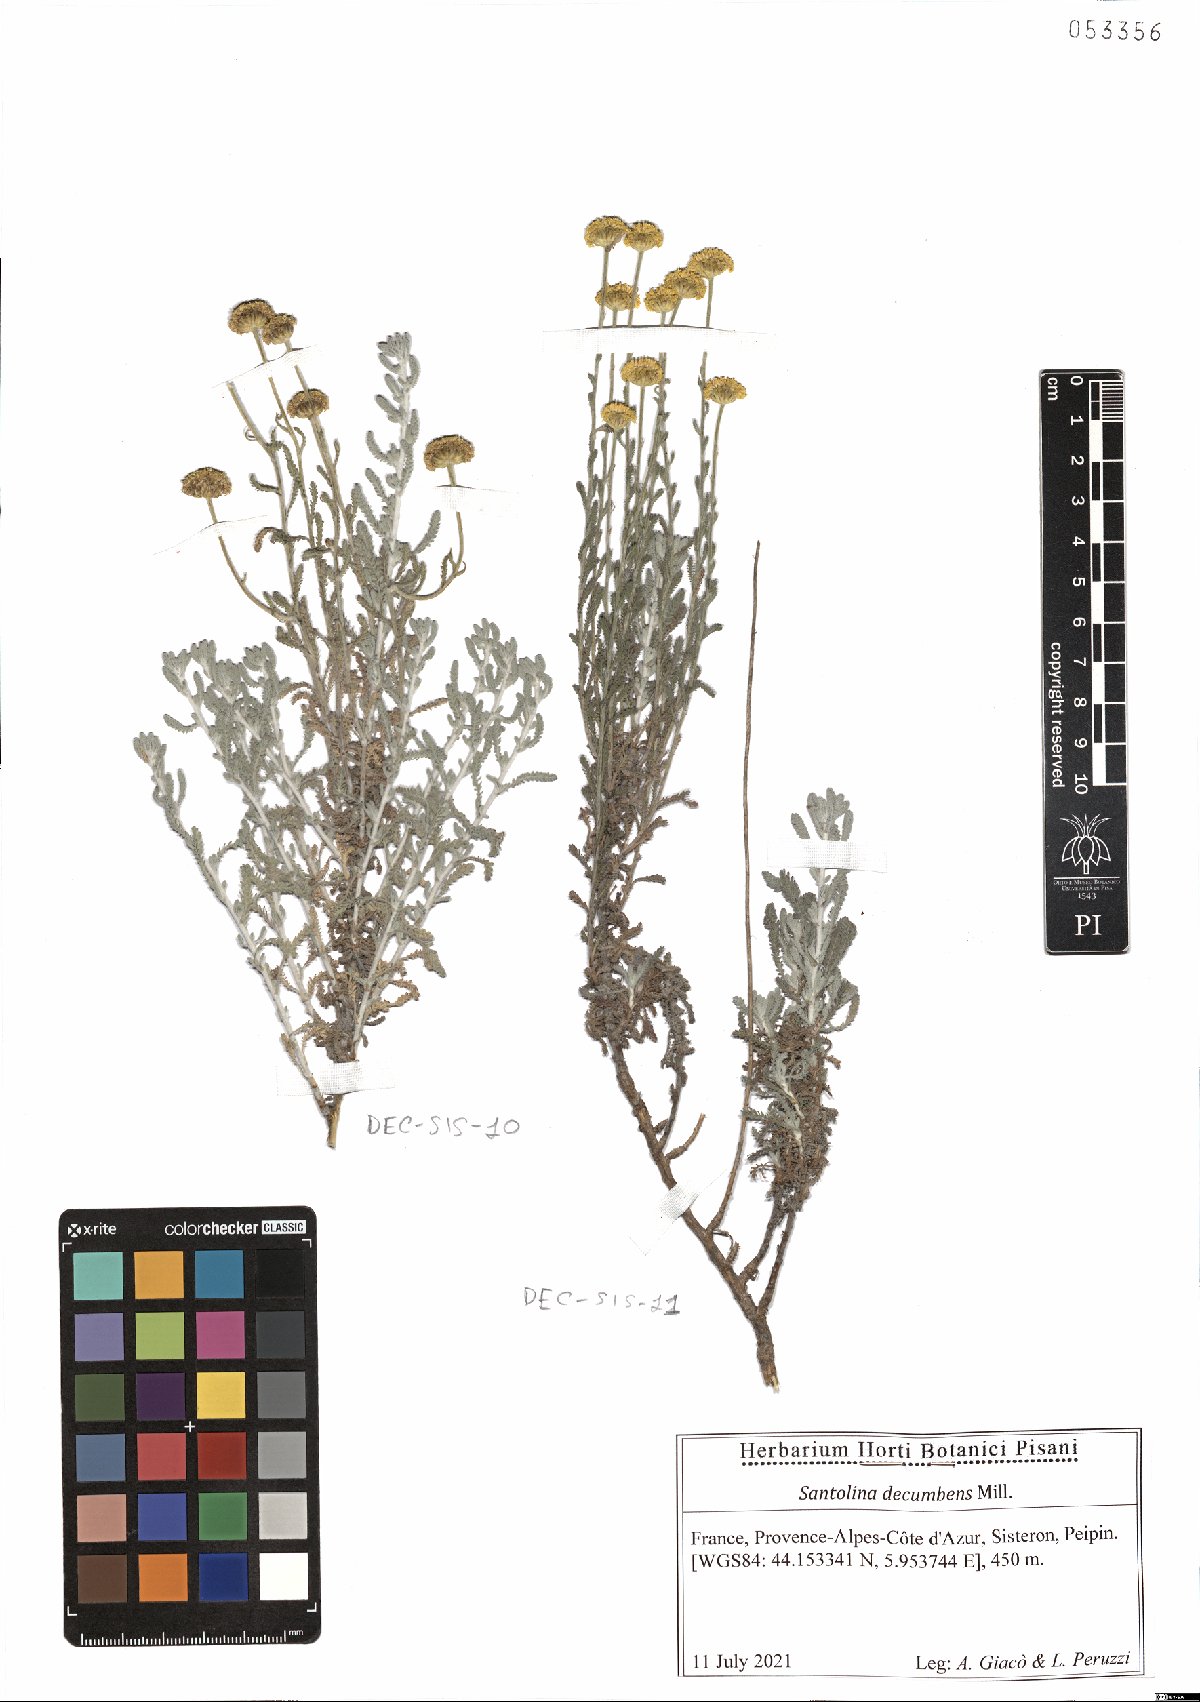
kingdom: Plantae
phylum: Tracheophyta
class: Magnoliopsida
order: Asterales
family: Asteraceae
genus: Santolina
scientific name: Santolina decumbens
